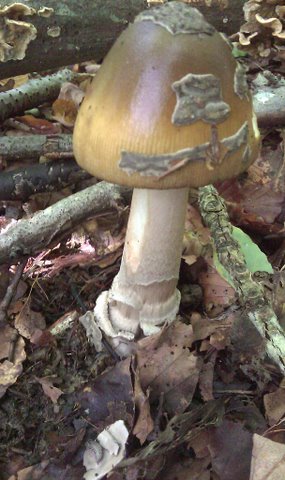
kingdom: Fungi
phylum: Basidiomycota
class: Agaricomycetes
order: Agaricales
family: Amanitaceae
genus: Amanita
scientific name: Amanita ceciliae
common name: stor kam-fluesvamp
